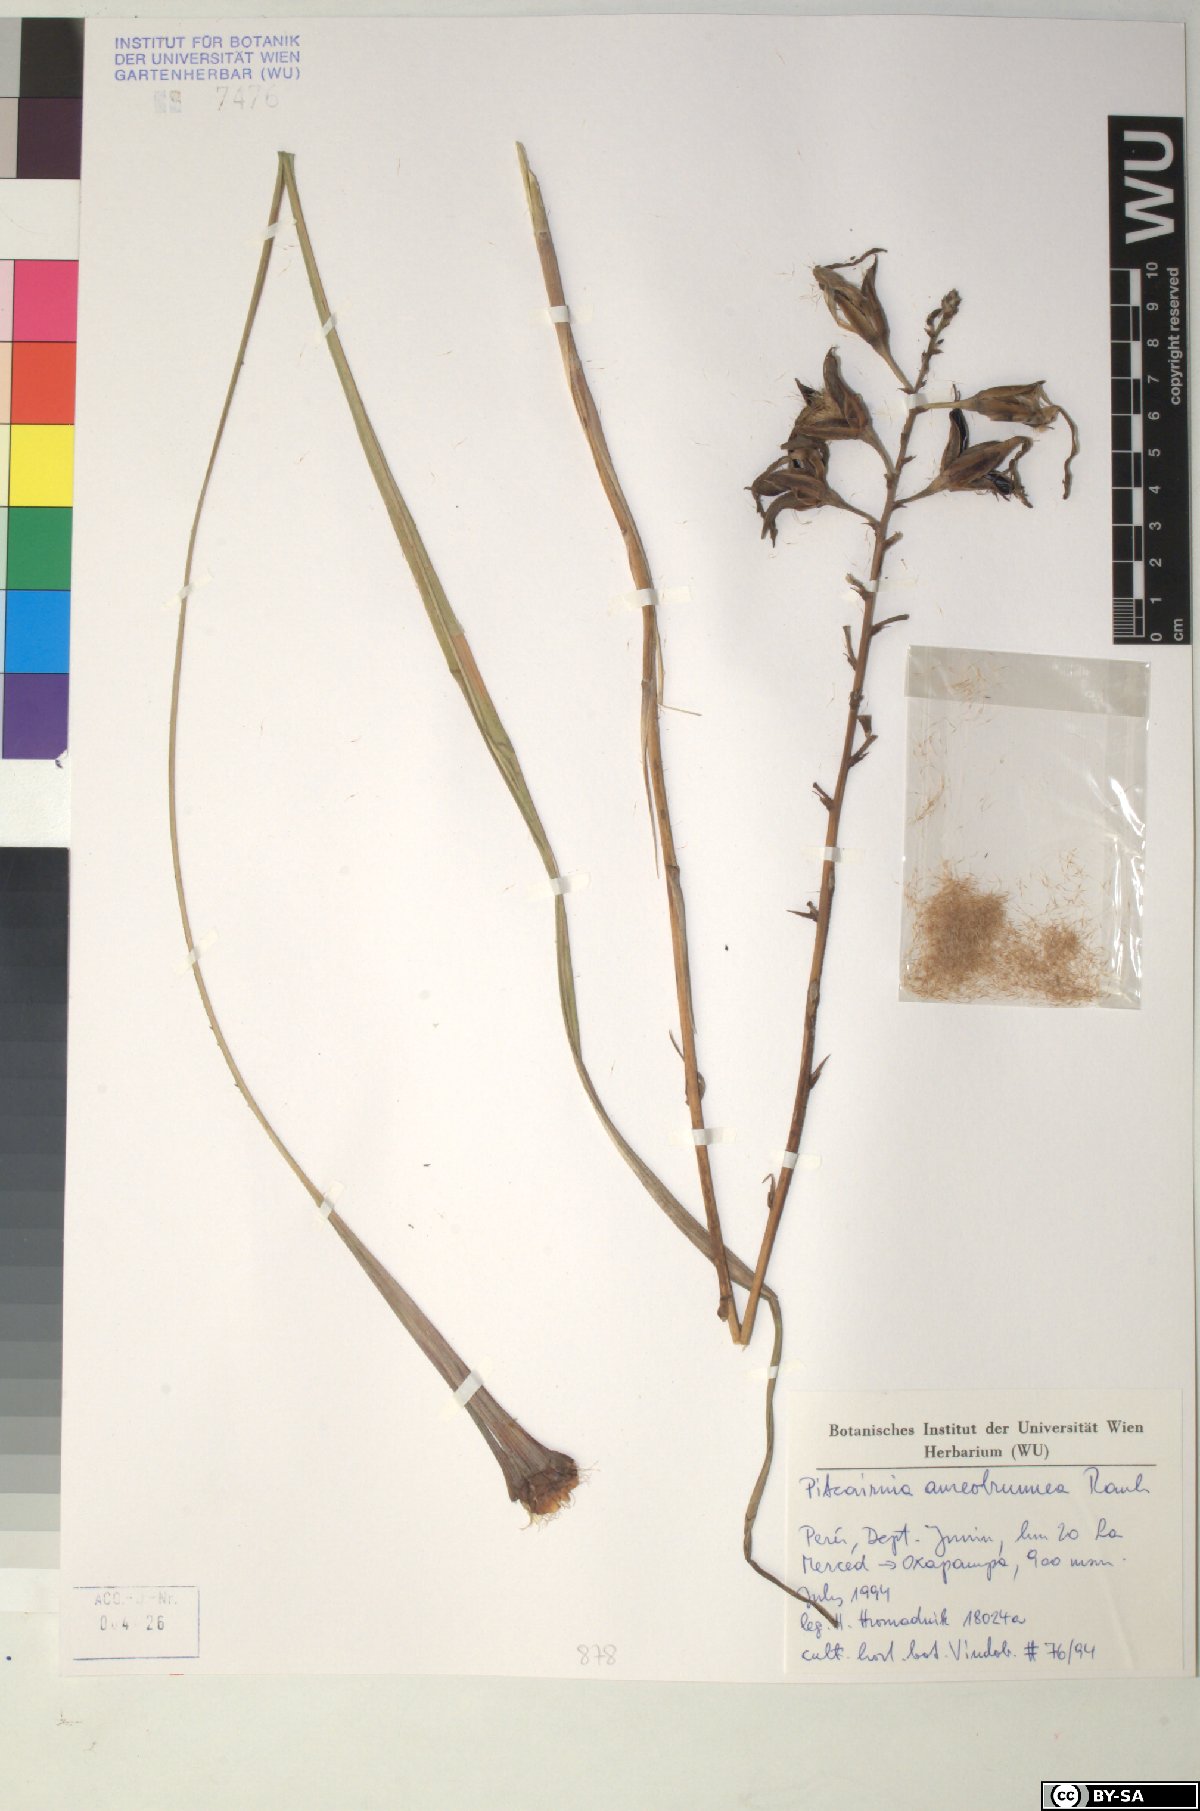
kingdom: Plantae
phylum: Tracheophyta
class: Liliopsida
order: Poales
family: Bromeliaceae
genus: Pitcairnia
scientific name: Pitcairnia aureobrunnea
